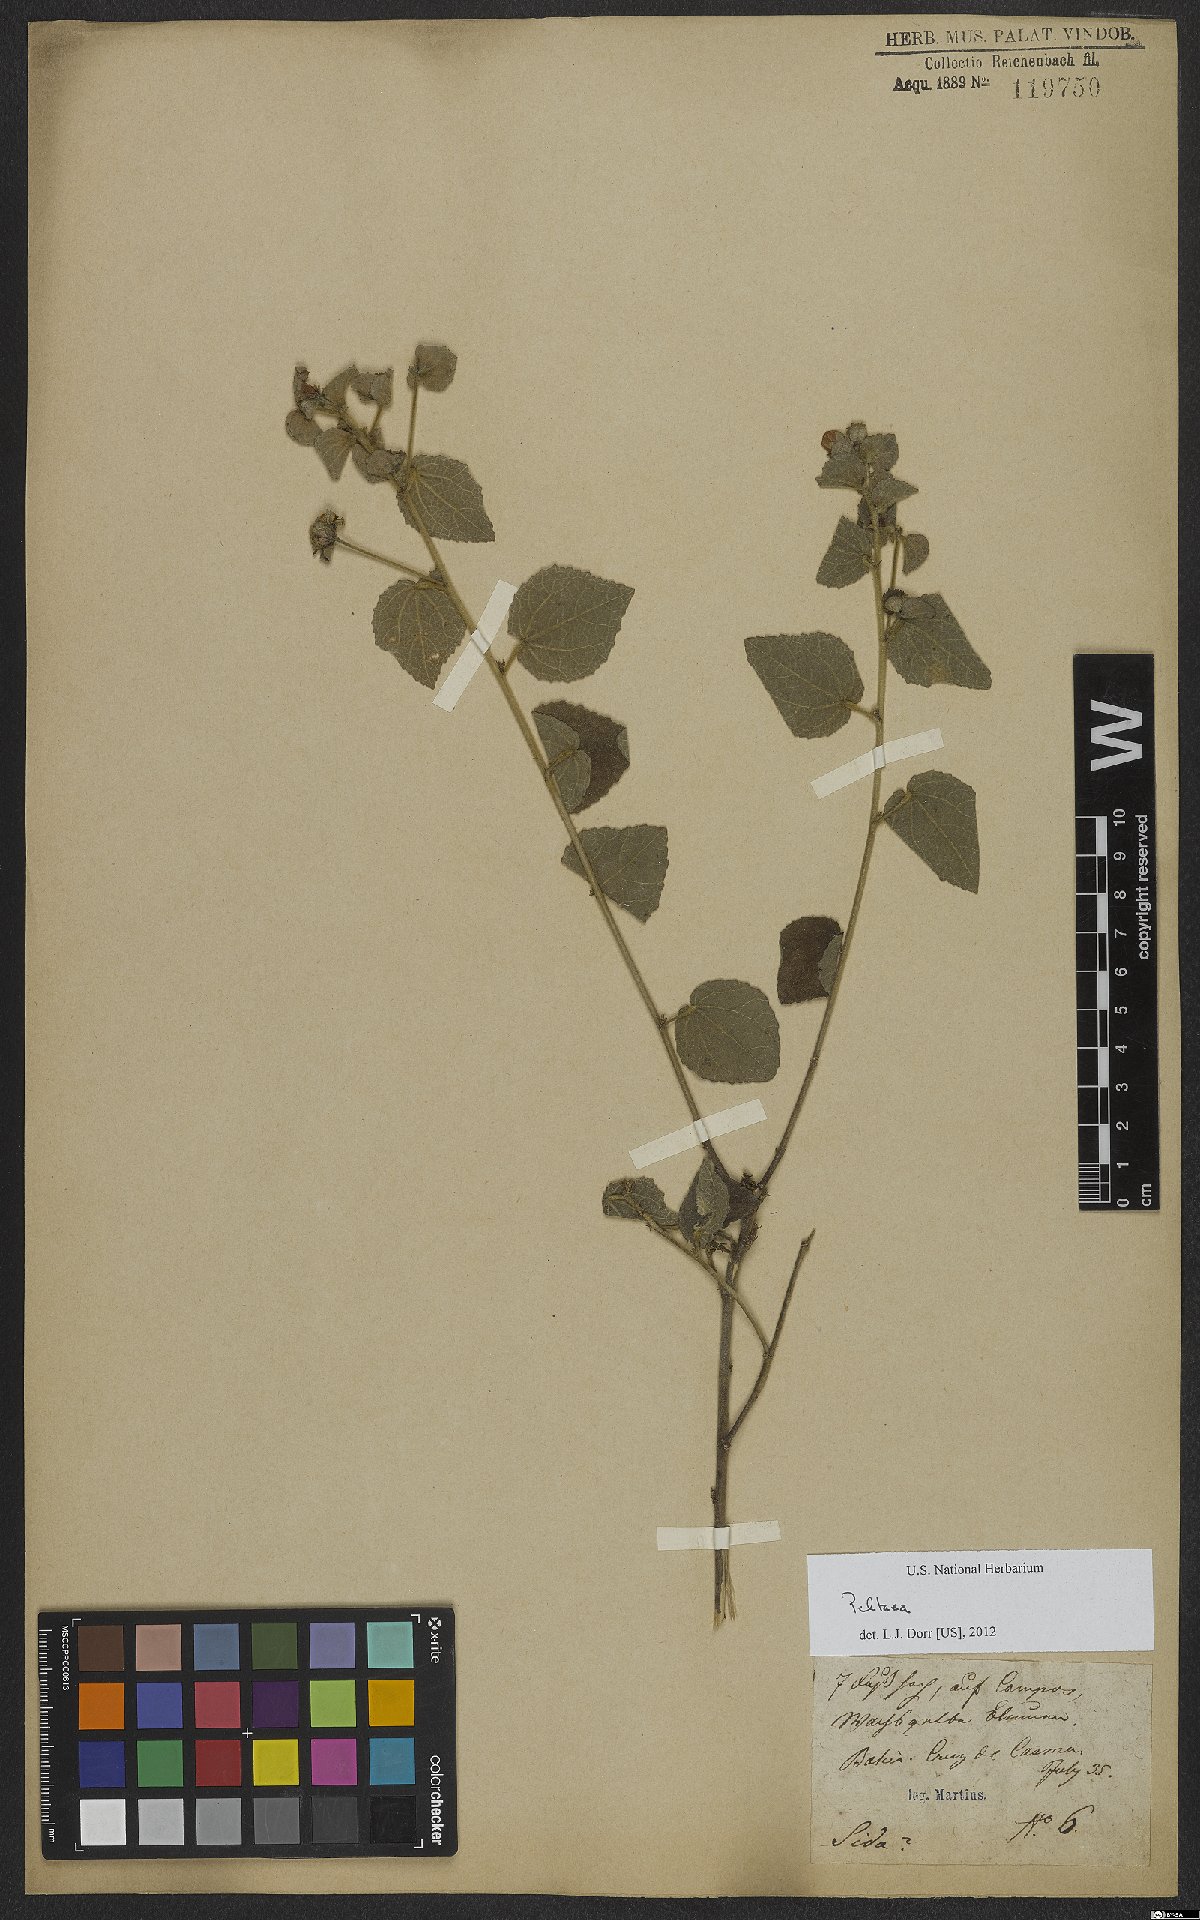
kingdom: Plantae
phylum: Tracheophyta
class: Magnoliopsida
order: Malvales
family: Malvaceae
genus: Peltaea
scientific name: Peltaea
